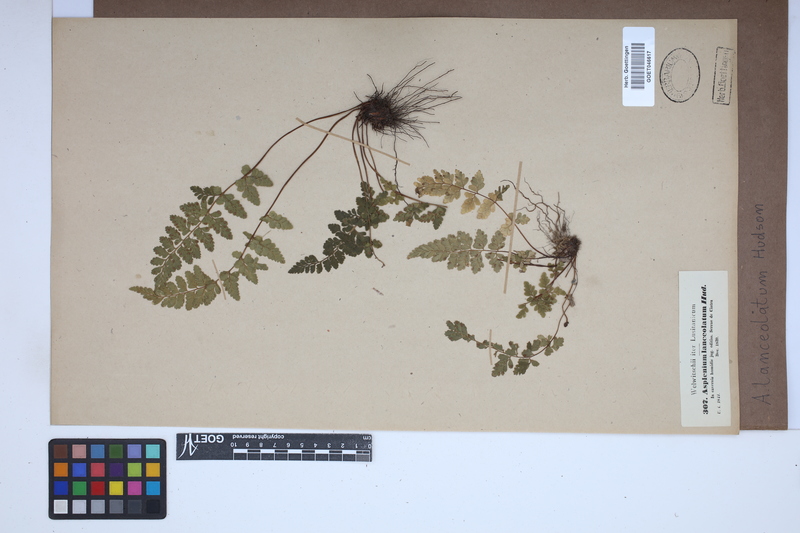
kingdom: Plantae
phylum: Tracheophyta
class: Polypodiopsida
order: Polypodiales
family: Aspleniaceae
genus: Asplenium
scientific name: Asplenium obovatum
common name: Lanceolate spleenwort
